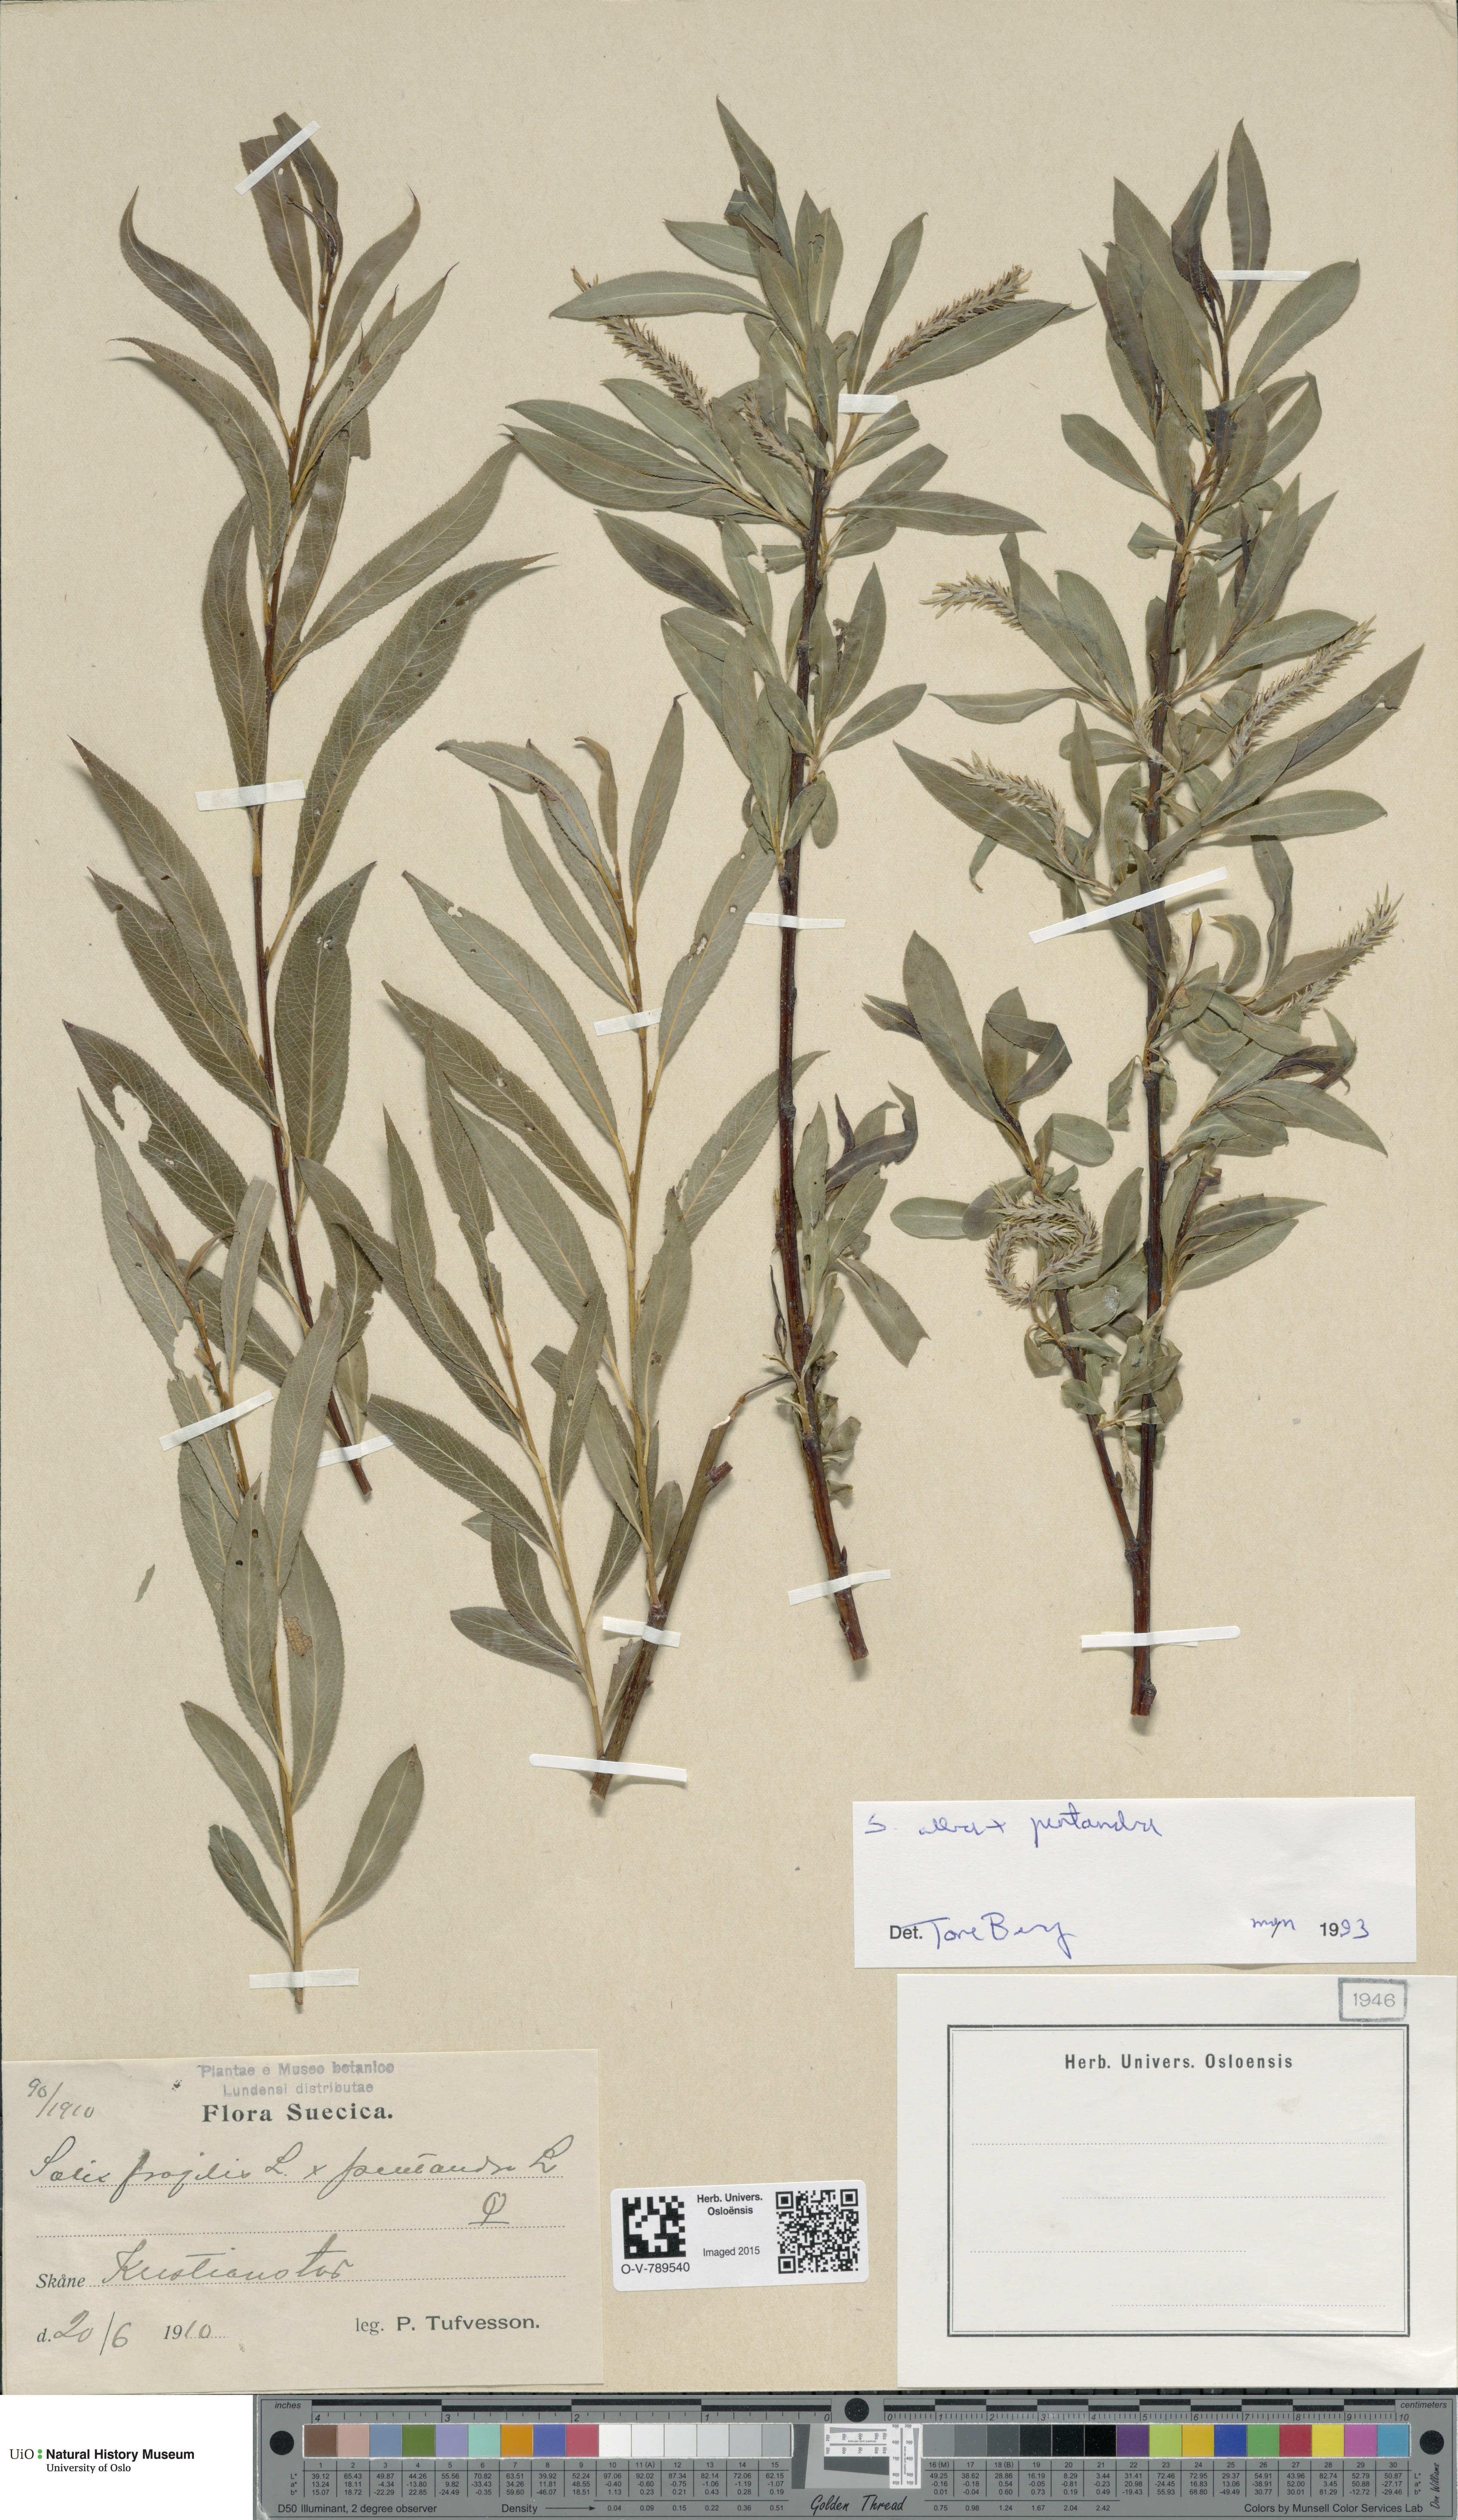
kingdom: Plantae
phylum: Tracheophyta
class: Magnoliopsida
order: Malpighiales
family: Salicaceae
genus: Salix
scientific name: Salix
